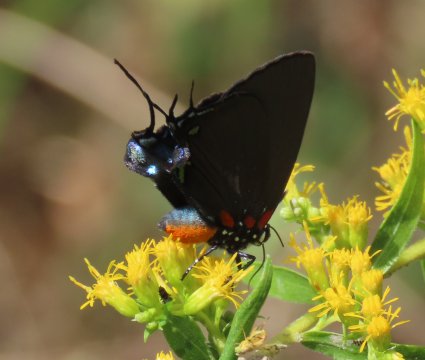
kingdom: Animalia
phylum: Arthropoda
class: Insecta
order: Lepidoptera
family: Lycaenidae
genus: Atlides
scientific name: Atlides halesus
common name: Great Purple Hairstreak
